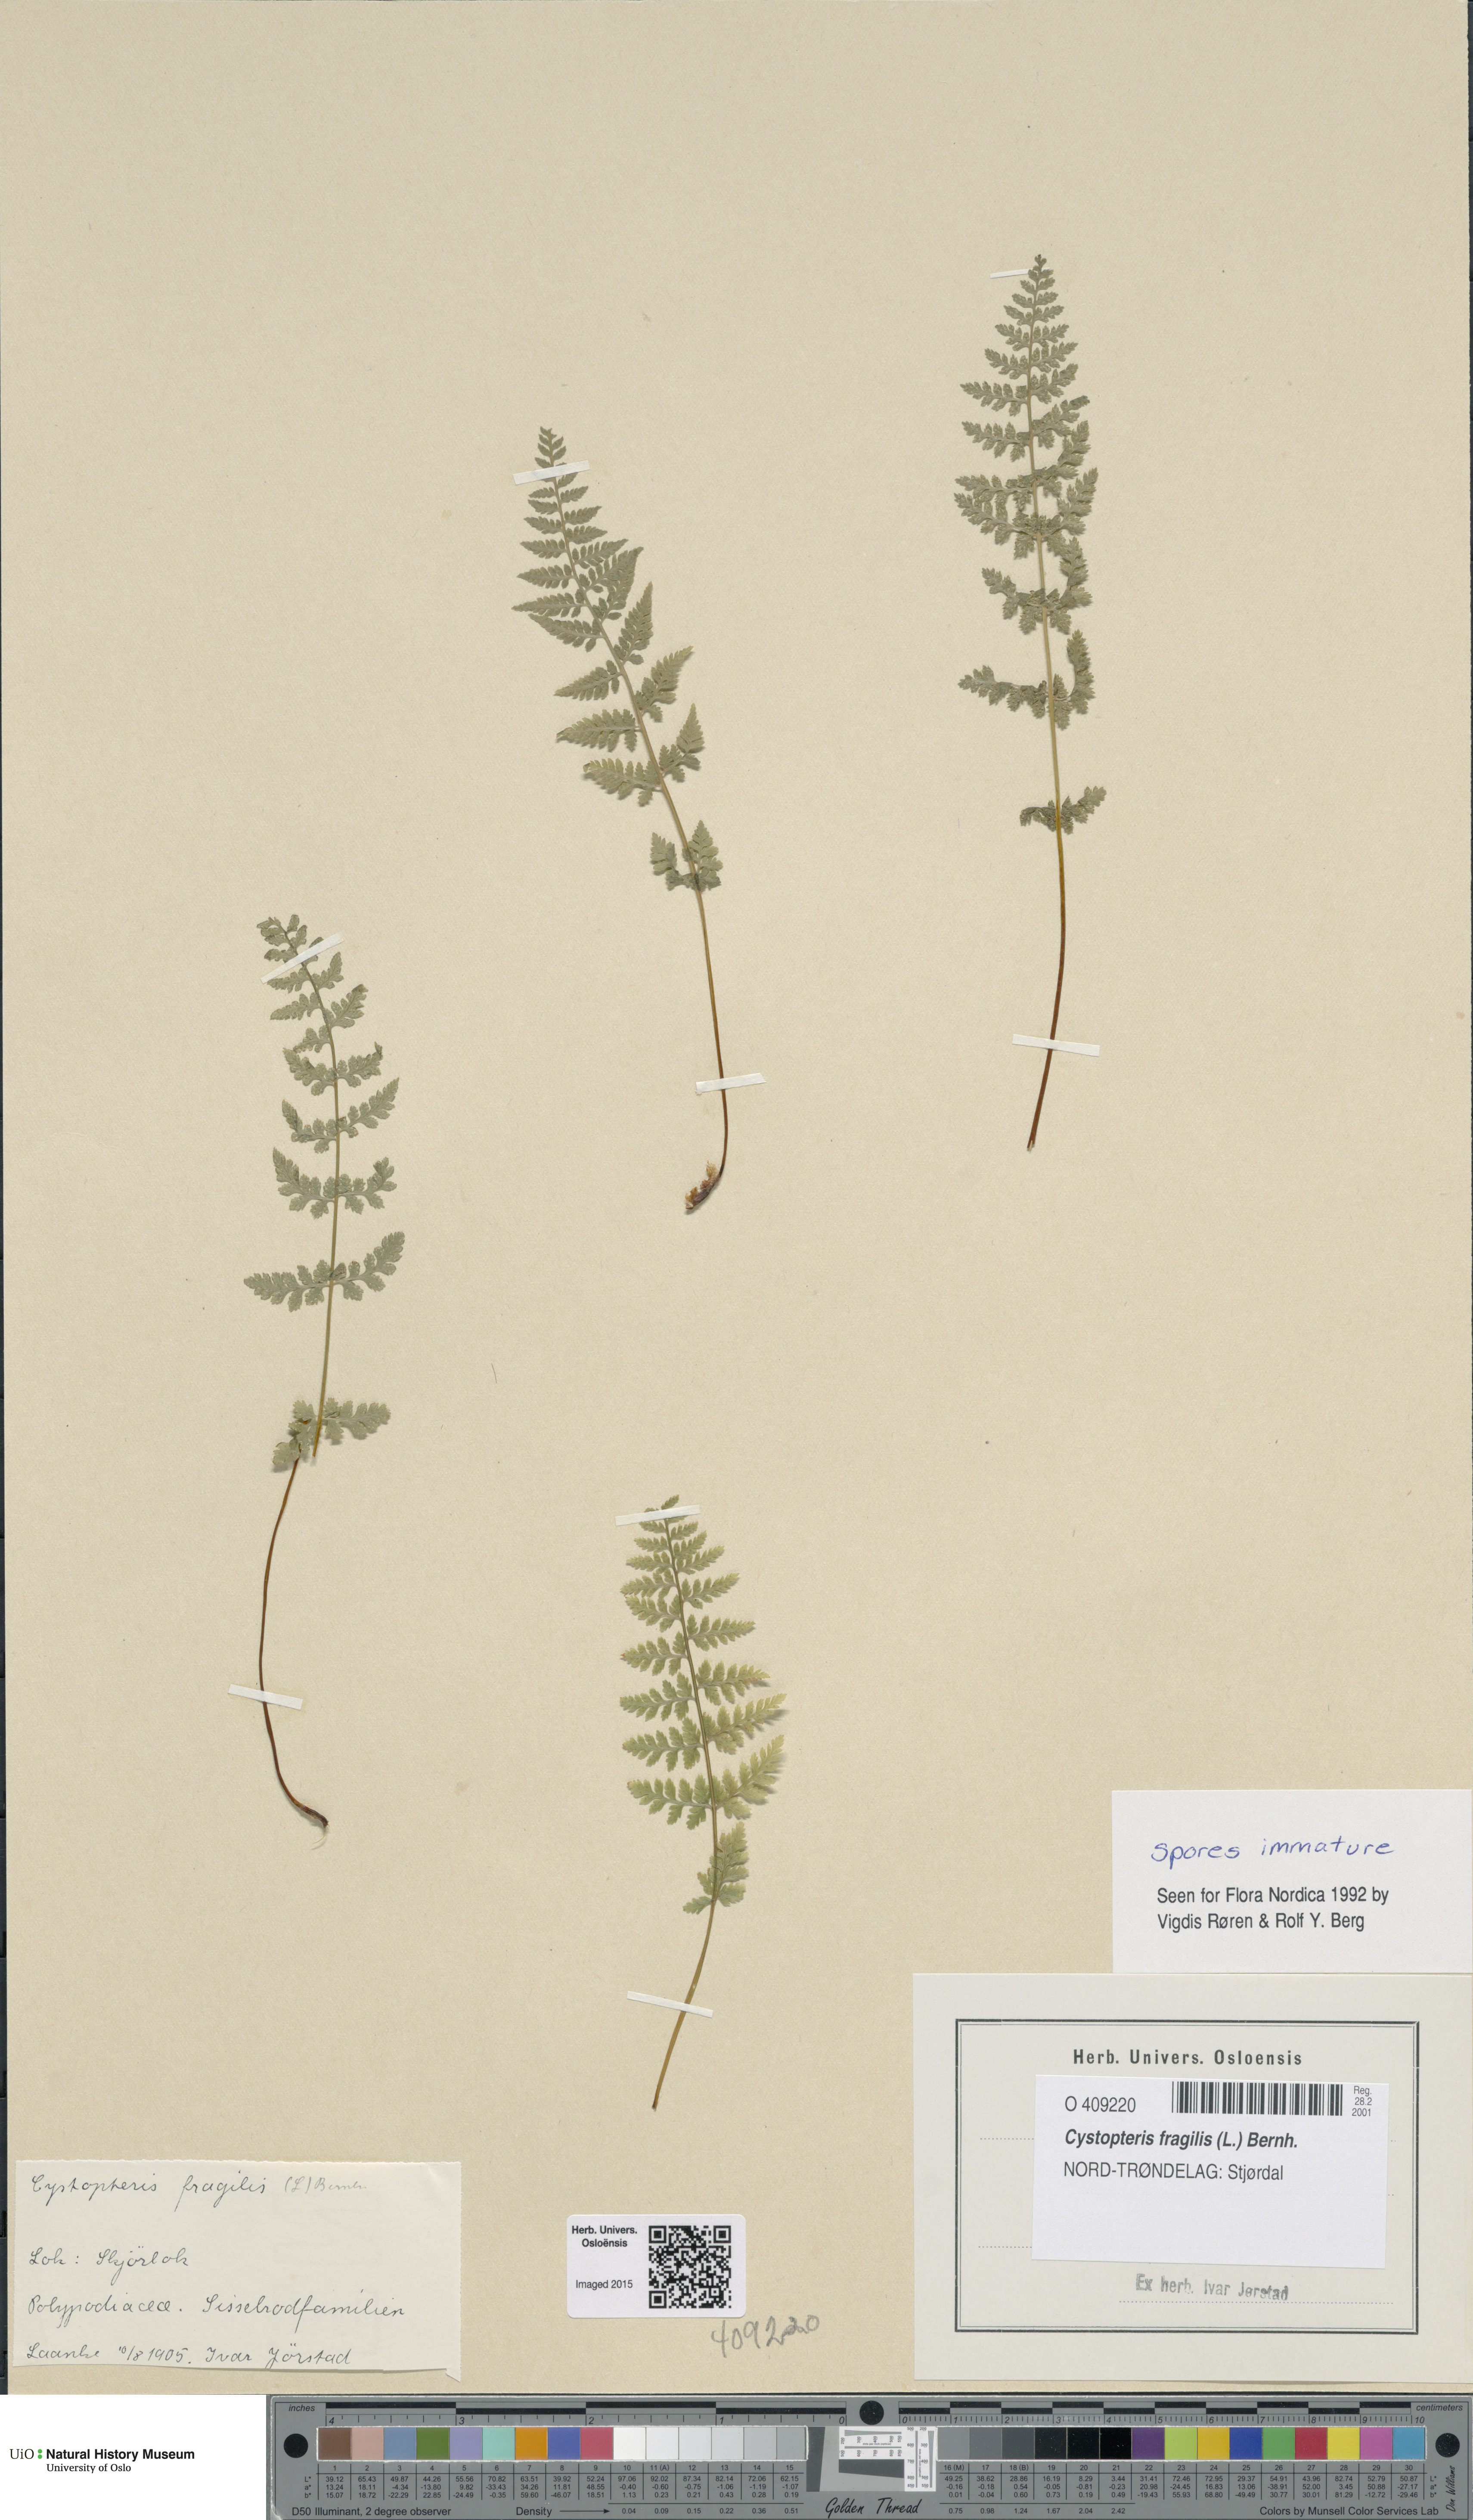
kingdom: Plantae
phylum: Tracheophyta
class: Polypodiopsida
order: Polypodiales
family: Cystopteridaceae
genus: Cystopteris
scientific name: Cystopteris fragilis
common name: Brittle bladder fern
